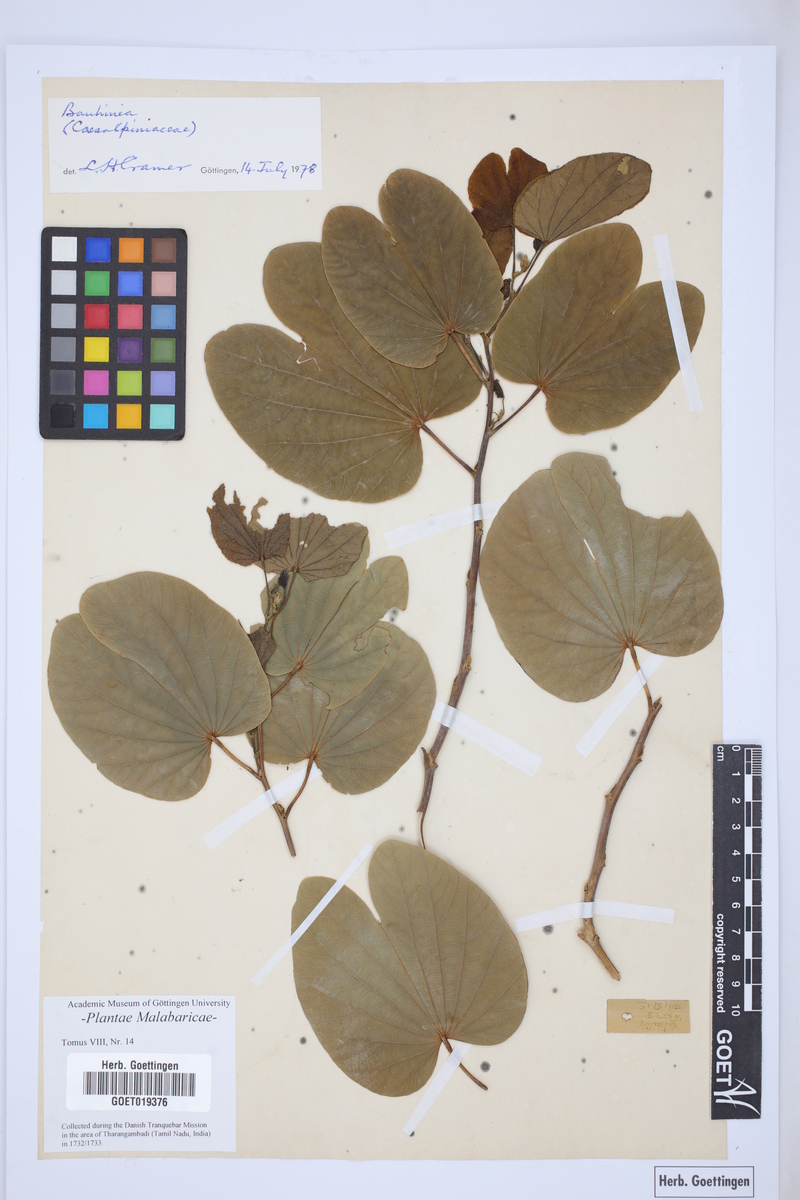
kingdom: Plantae
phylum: Tracheophyta
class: Magnoliopsida
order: Fabales
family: Fabaceae
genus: Bauhinia
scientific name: Bauhinia
